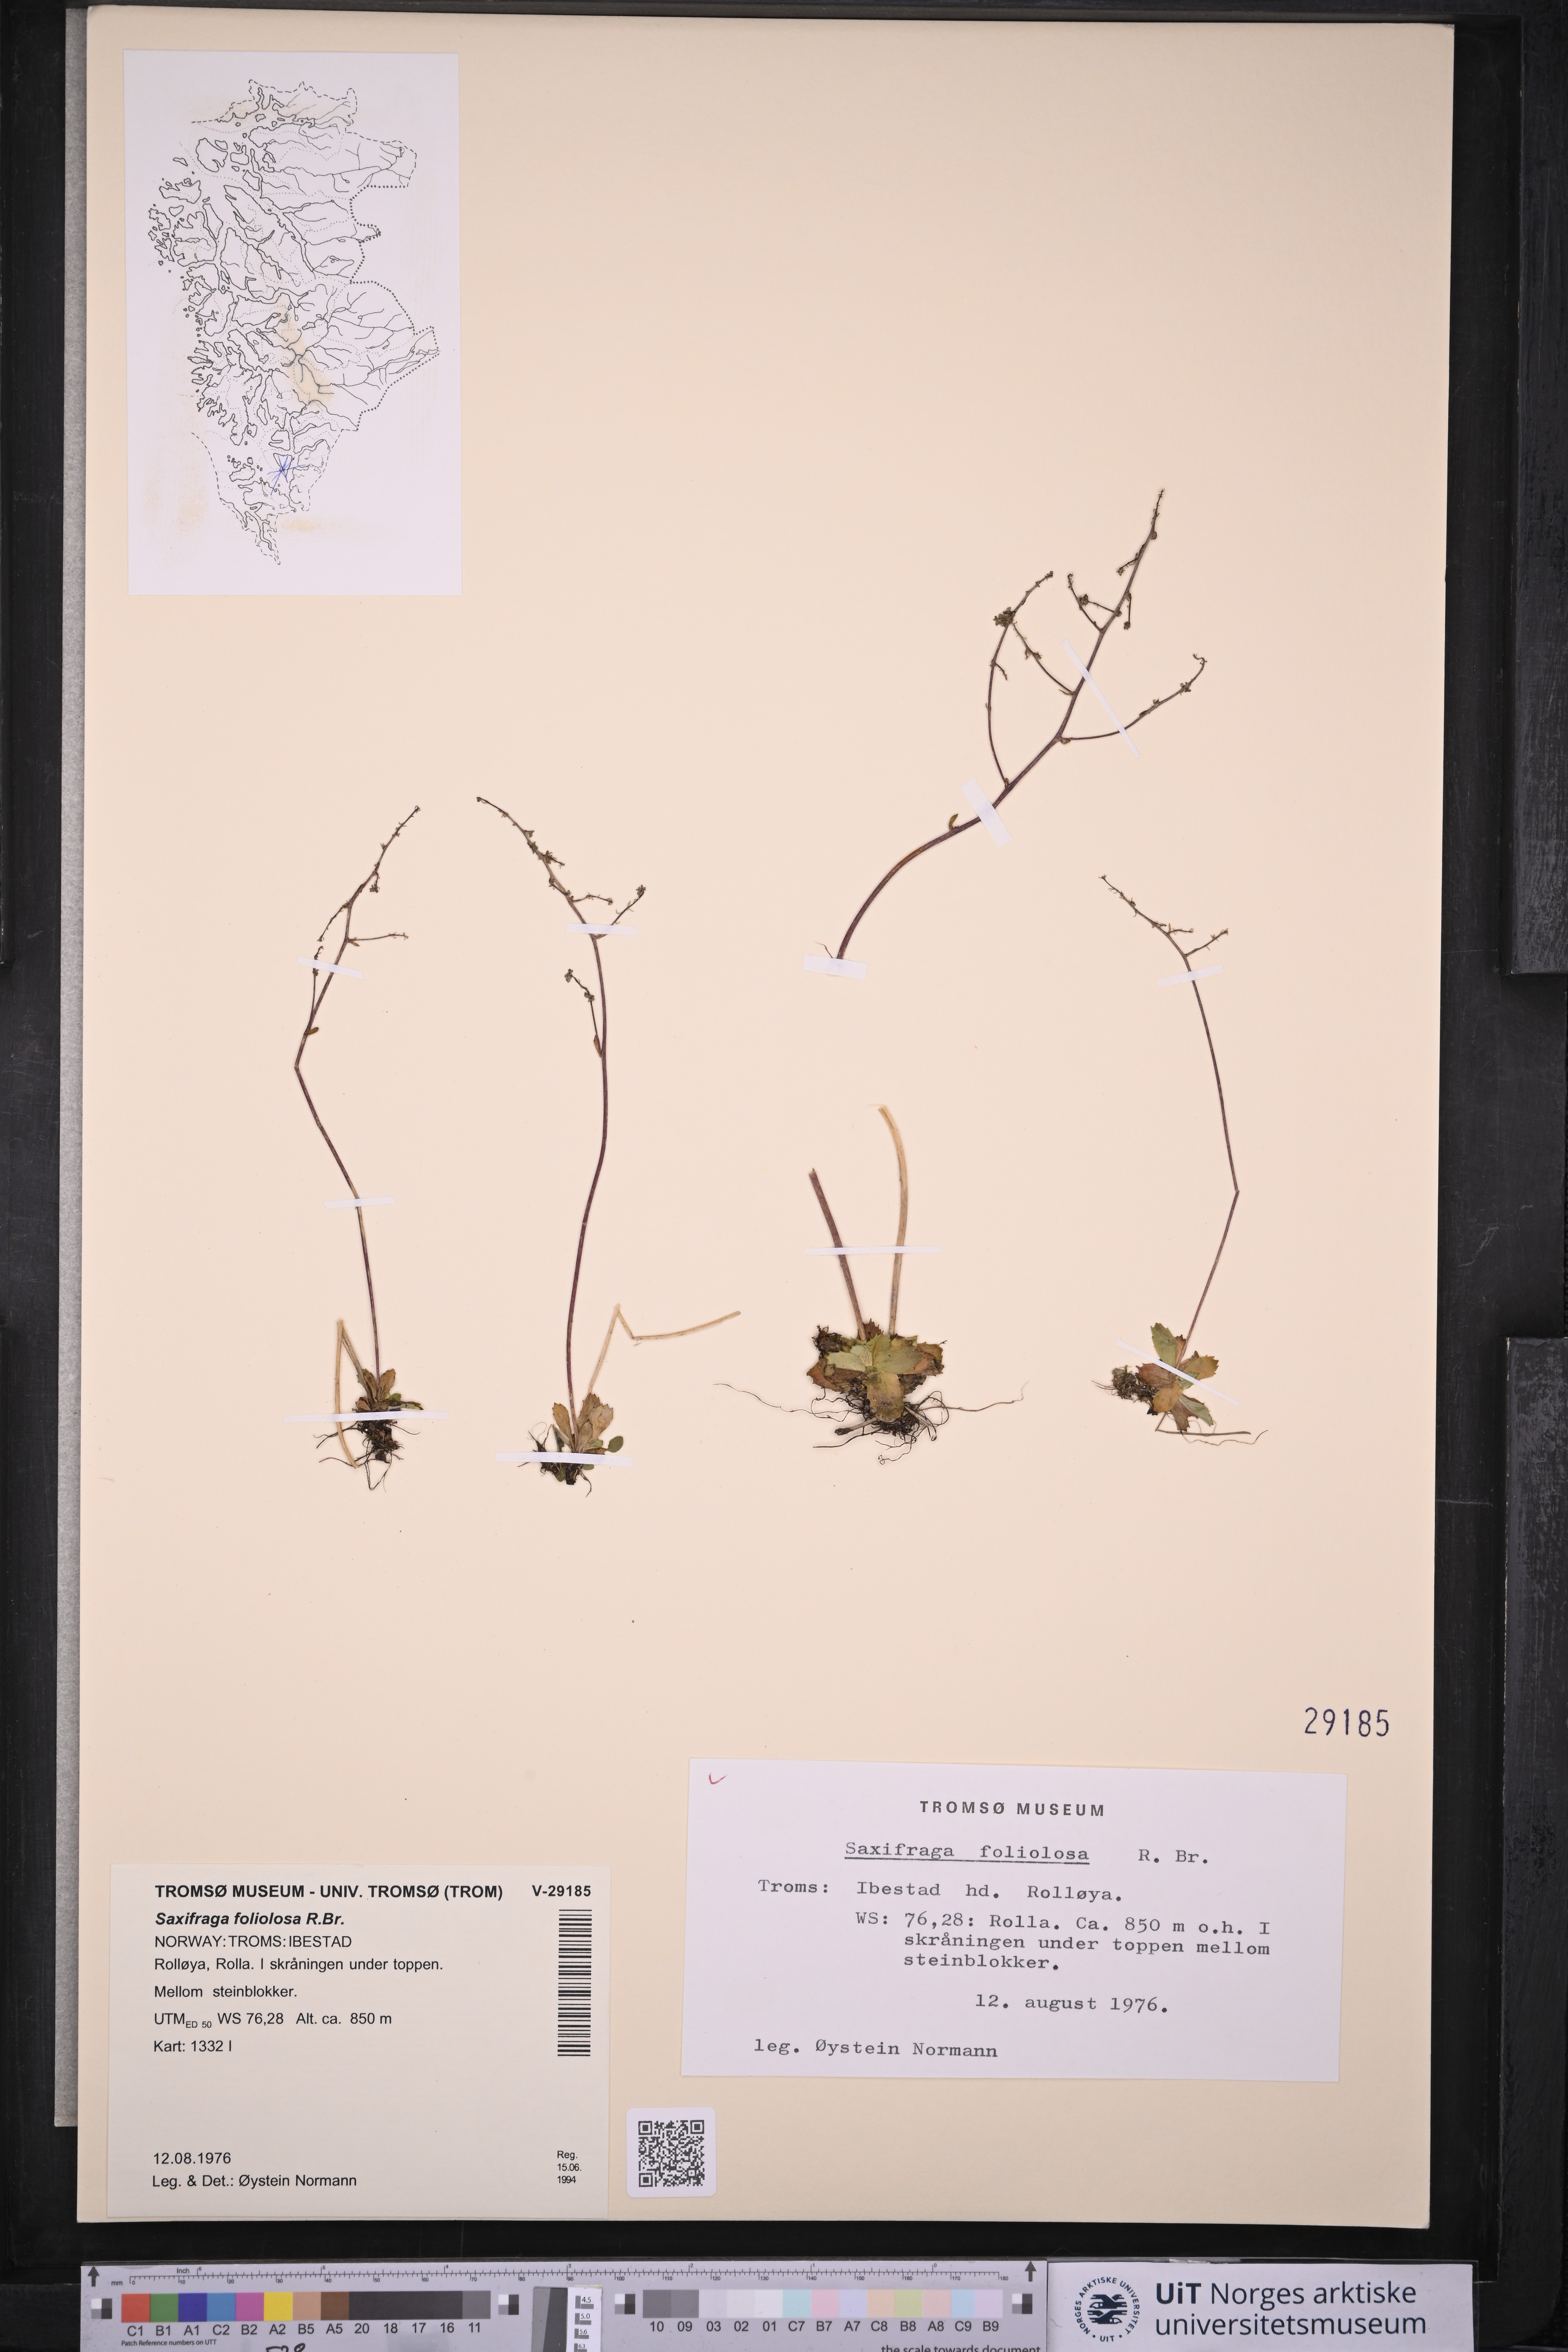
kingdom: Plantae
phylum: Tracheophyta
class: Magnoliopsida
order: Saxifragales
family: Saxifragaceae
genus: Micranthes
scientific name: Micranthes foliolosa
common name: Leafystem saxifrage
